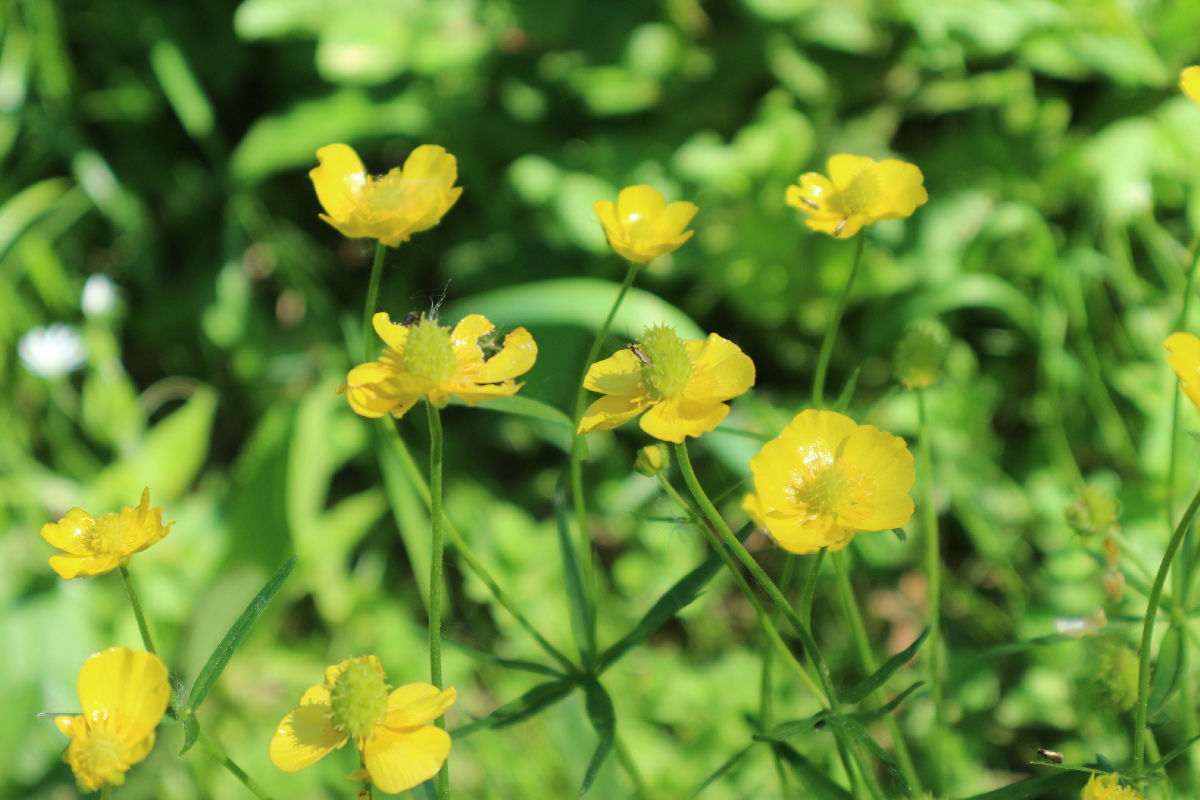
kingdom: Plantae
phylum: Tracheophyta
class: Magnoliopsida
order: Ranunculales
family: Ranunculaceae
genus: Ranunculus
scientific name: Ranunculus cassubicus
